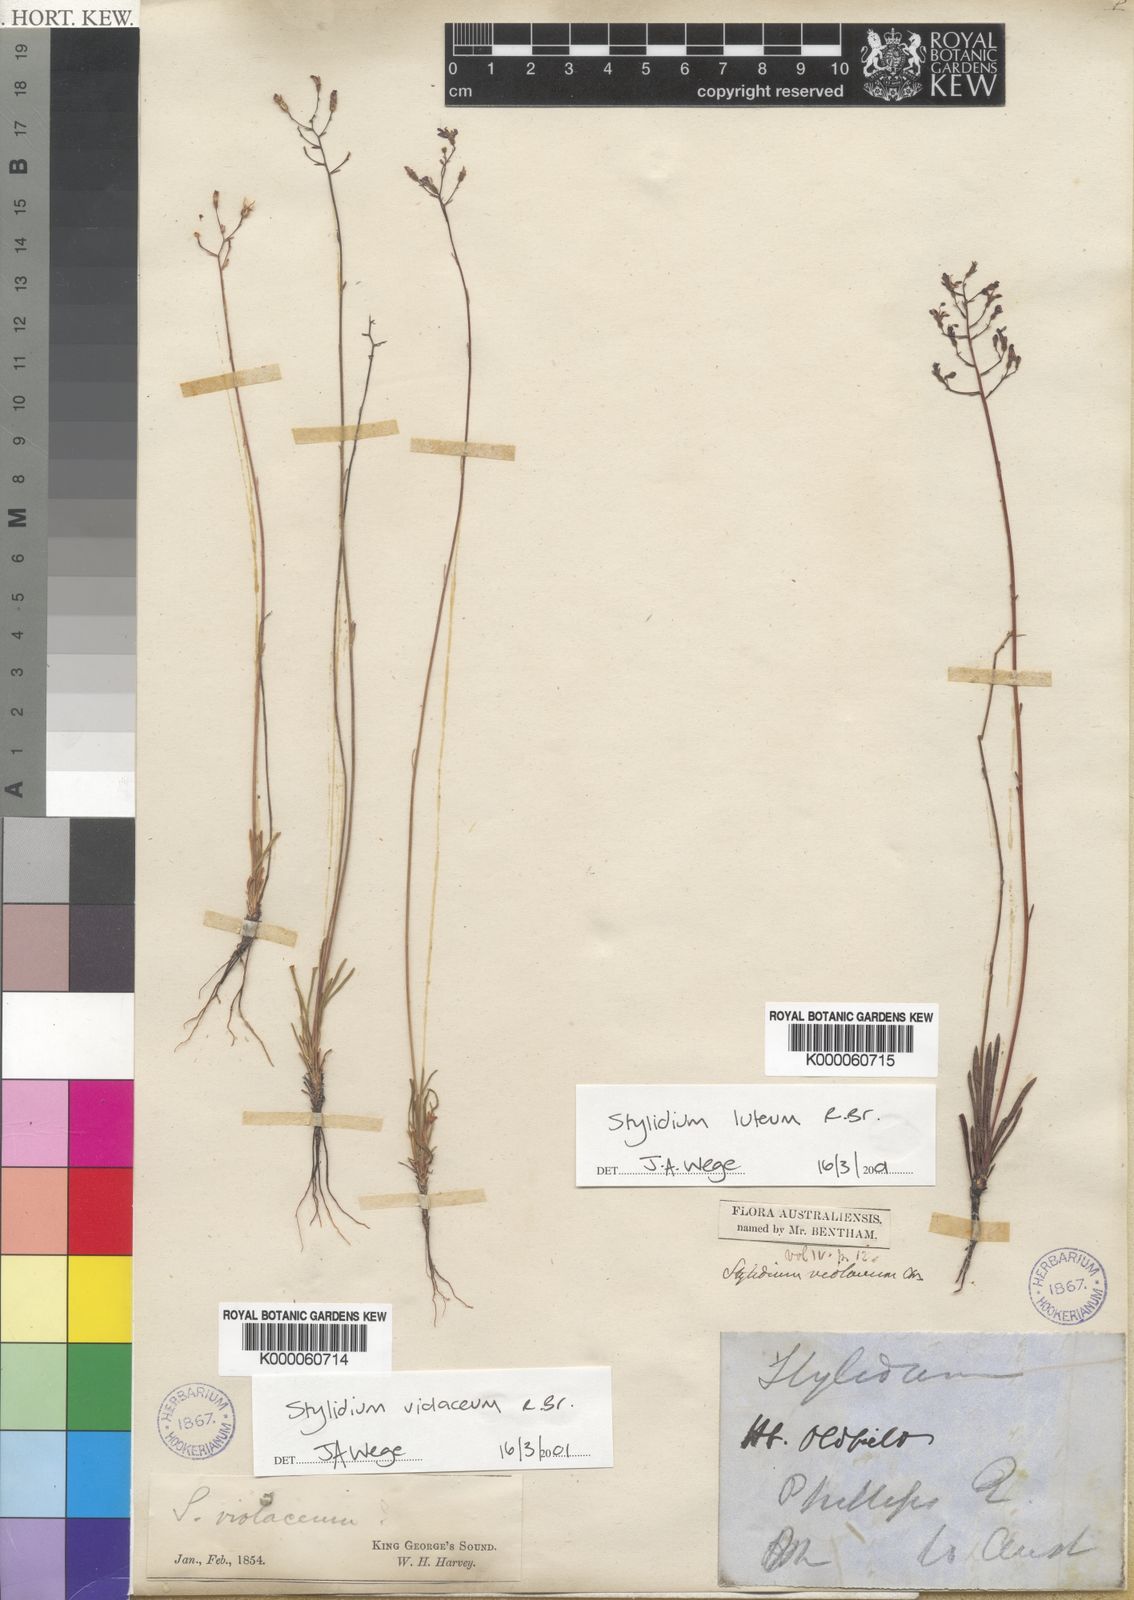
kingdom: Plantae
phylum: Tracheophyta
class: Magnoliopsida
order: Asterales
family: Stylidiaceae
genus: Stylidium
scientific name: Stylidium luteum
